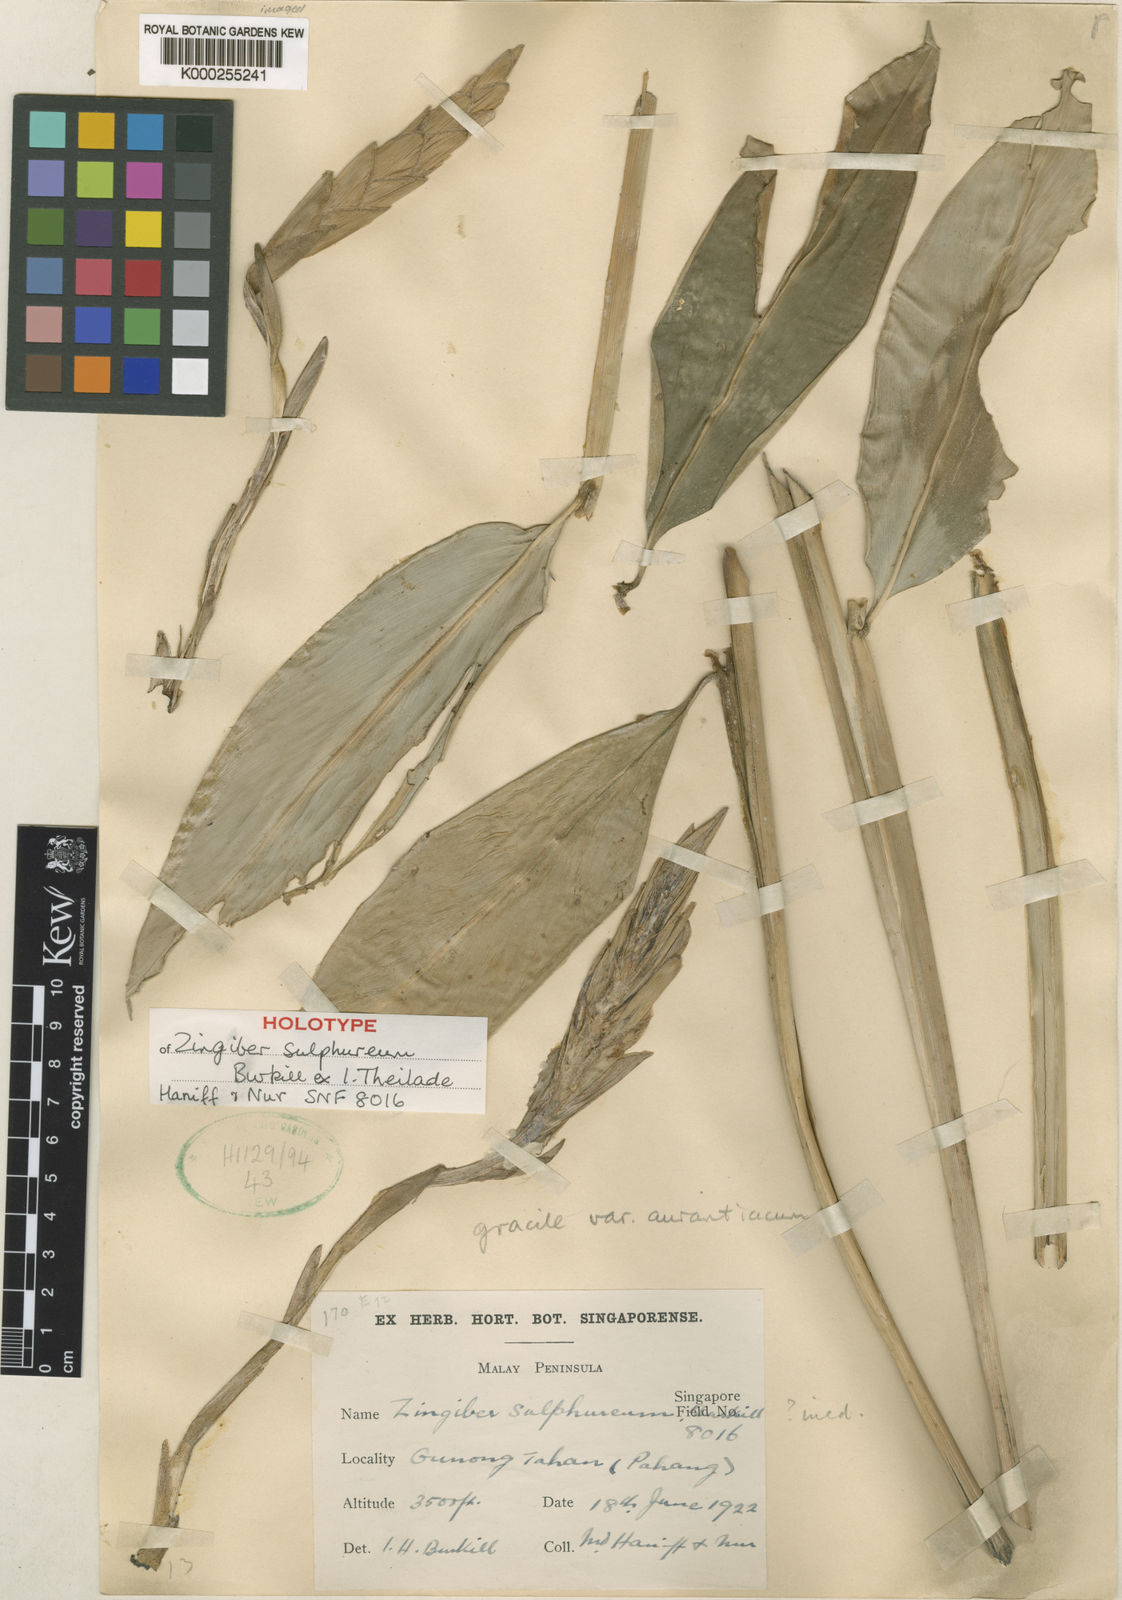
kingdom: Plantae
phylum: Tracheophyta
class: Liliopsida
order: Zingiberales
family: Zingiberaceae
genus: Zingiber
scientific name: Zingiber sulphureum
